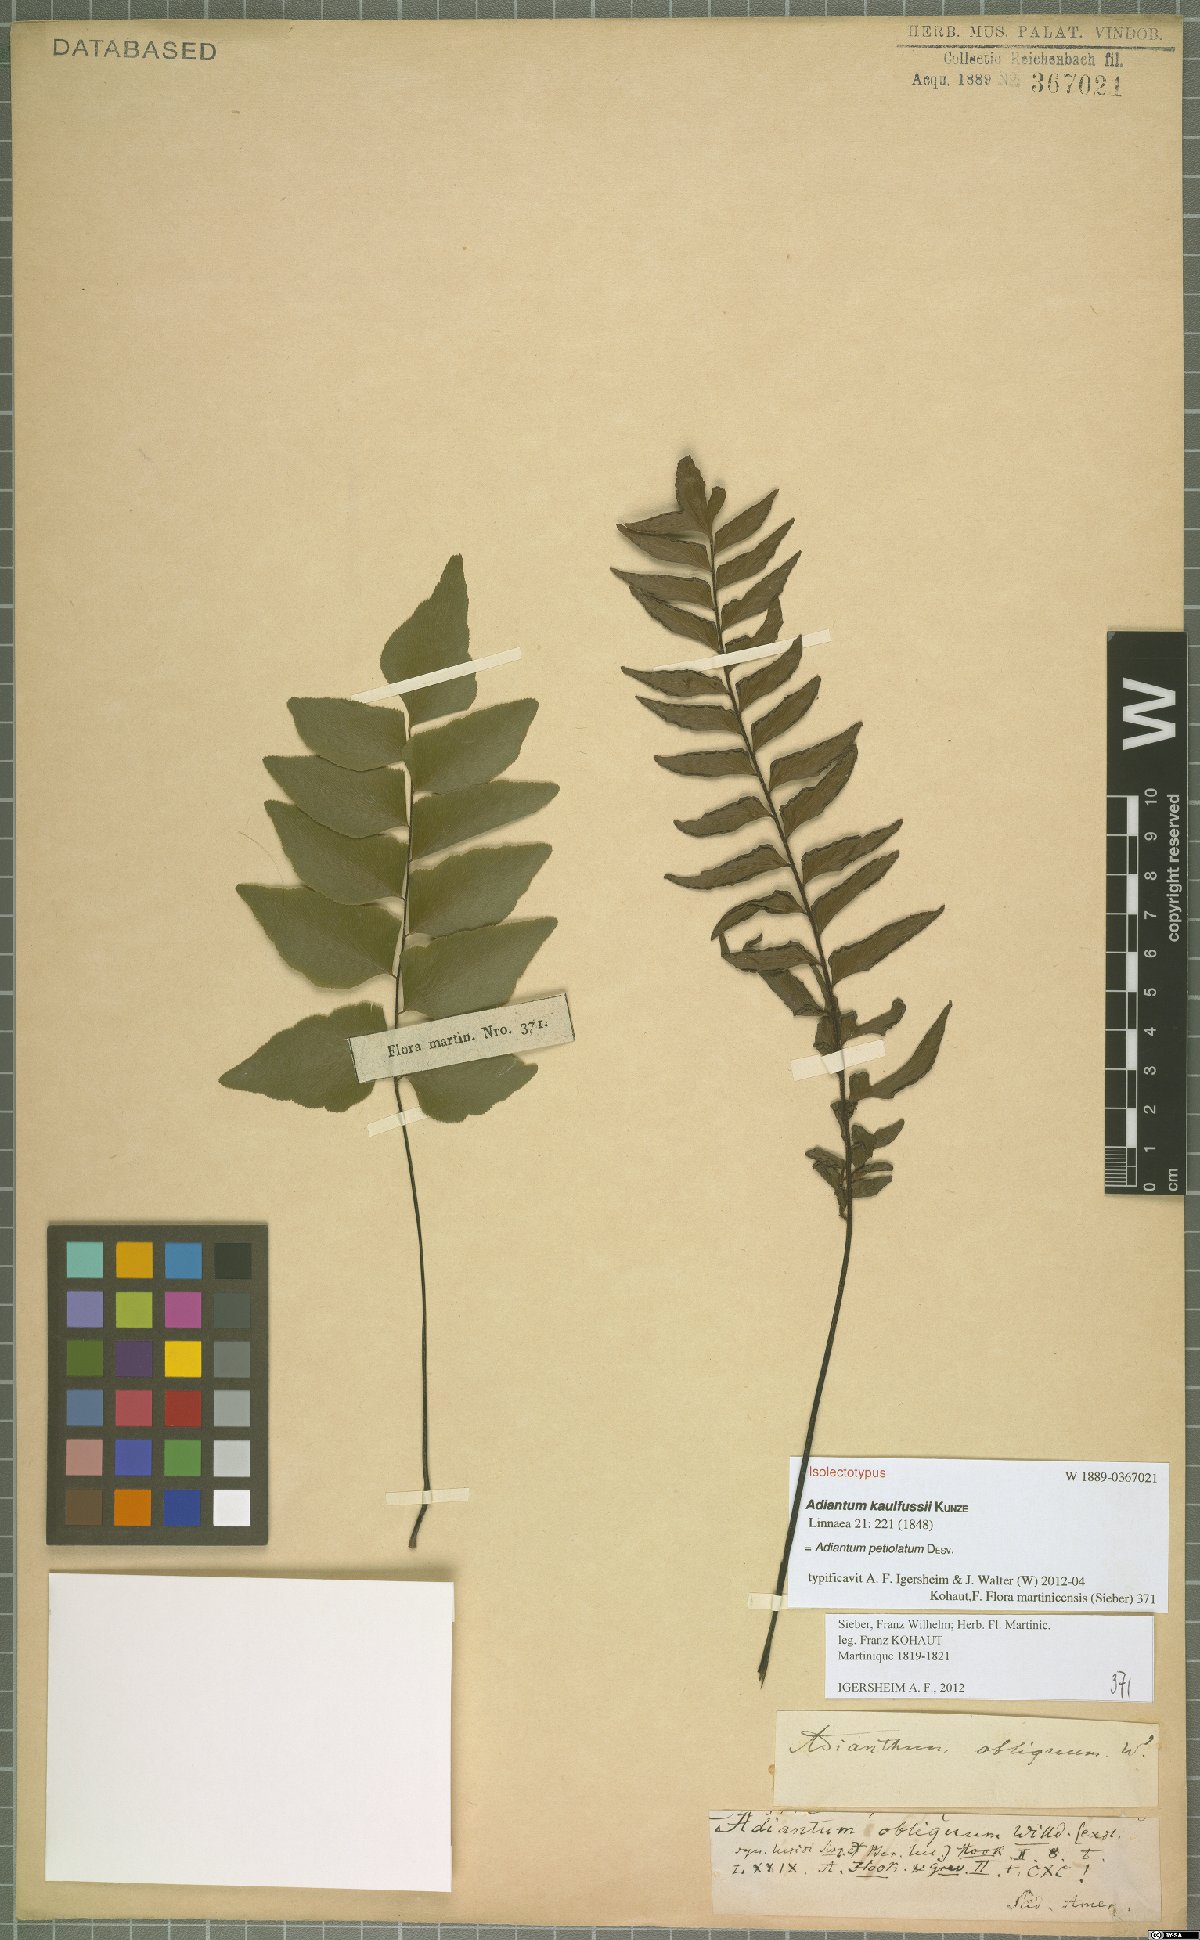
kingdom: Plantae
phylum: Tracheophyta
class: Polypodiopsida
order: Polypodiales
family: Pteridaceae
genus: Adiantum
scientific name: Adiantum petiolatum
